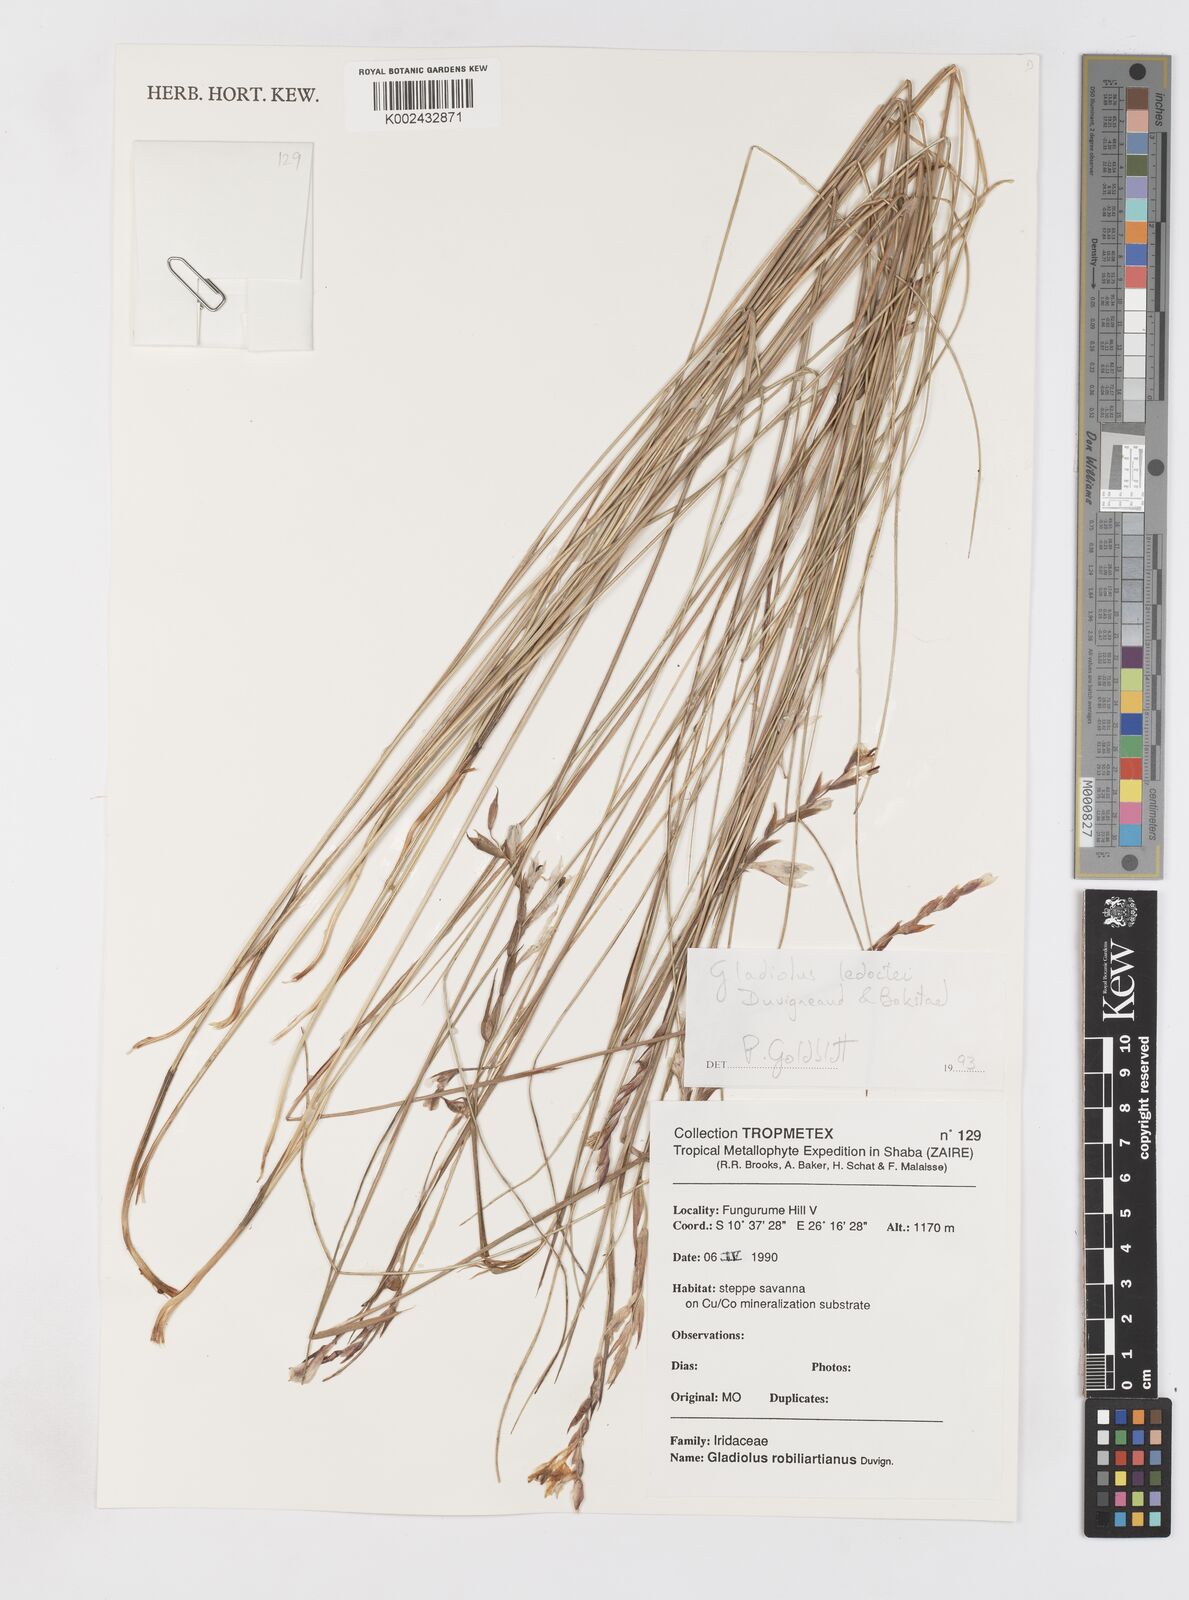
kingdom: Plantae
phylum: Tracheophyta
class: Liliopsida
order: Asparagales
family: Iridaceae
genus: Gladiolus
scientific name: Gladiolus ledoctei
